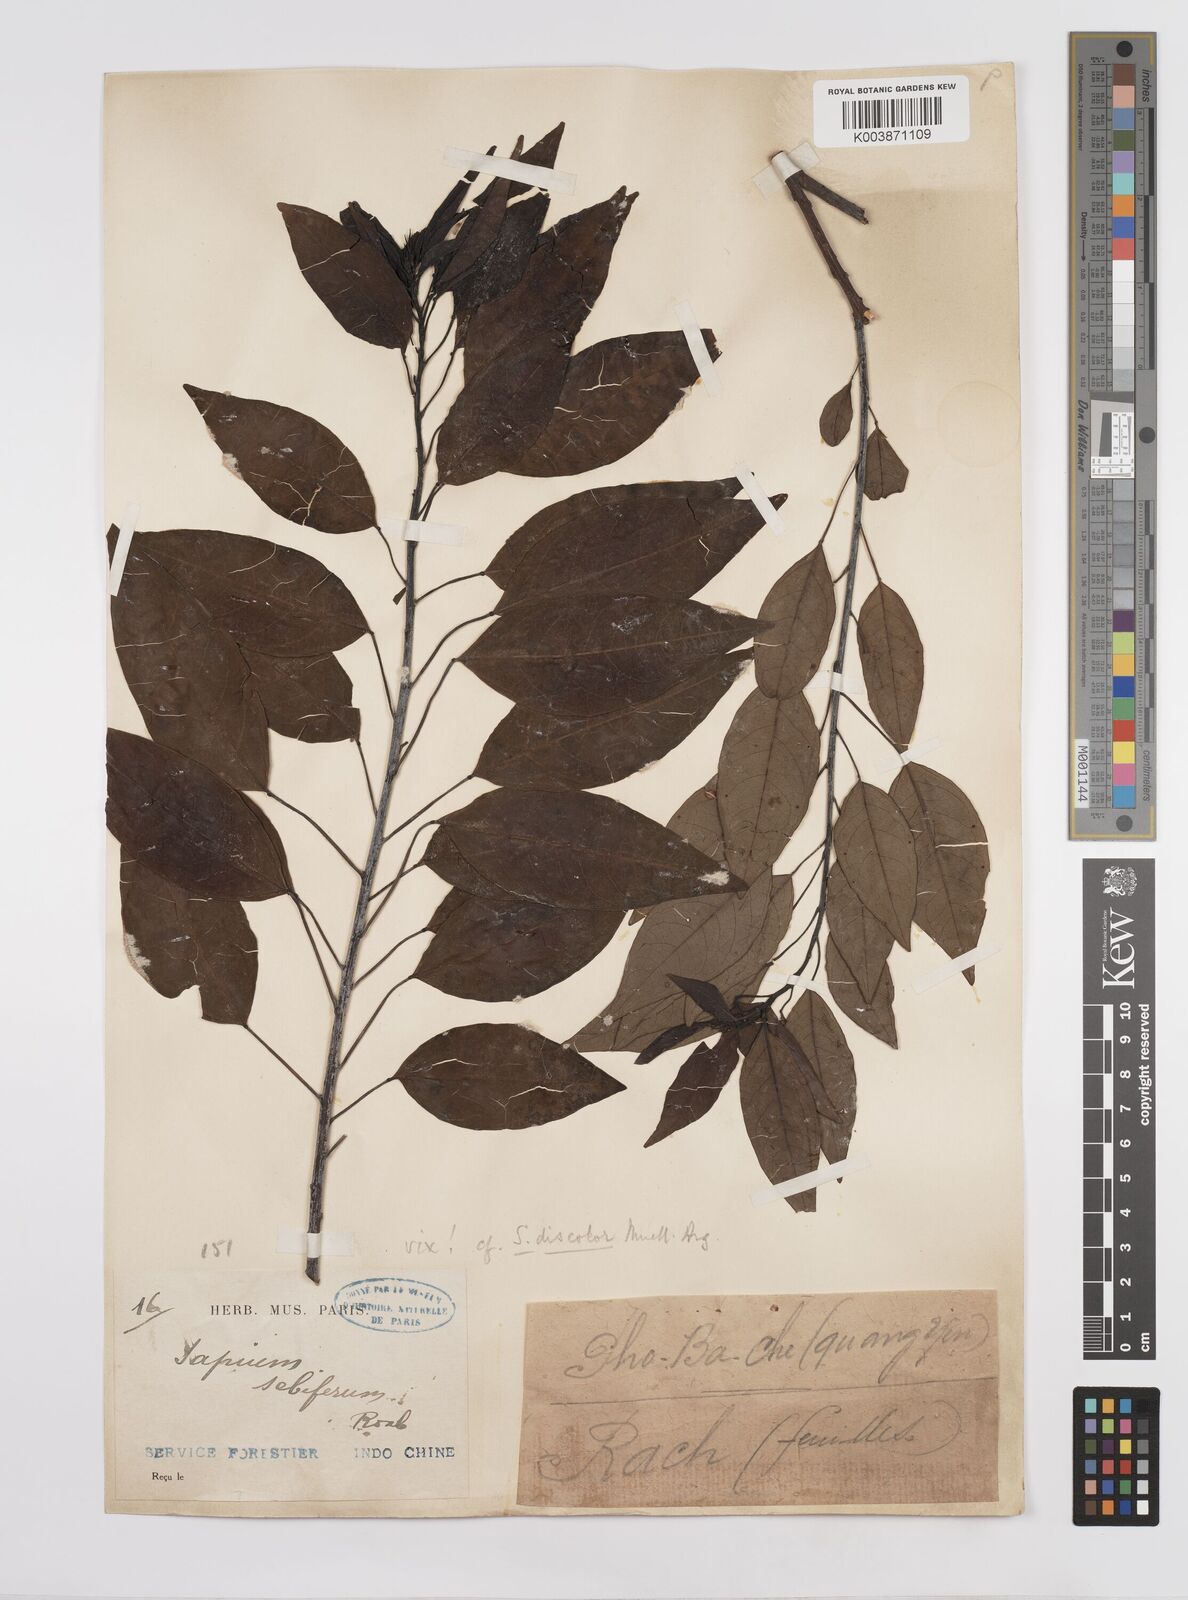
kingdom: Plantae
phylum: Tracheophyta
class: Magnoliopsida
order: Malpighiales
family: Euphorbiaceae
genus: Triadica
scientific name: Triadica cochinchinensis
